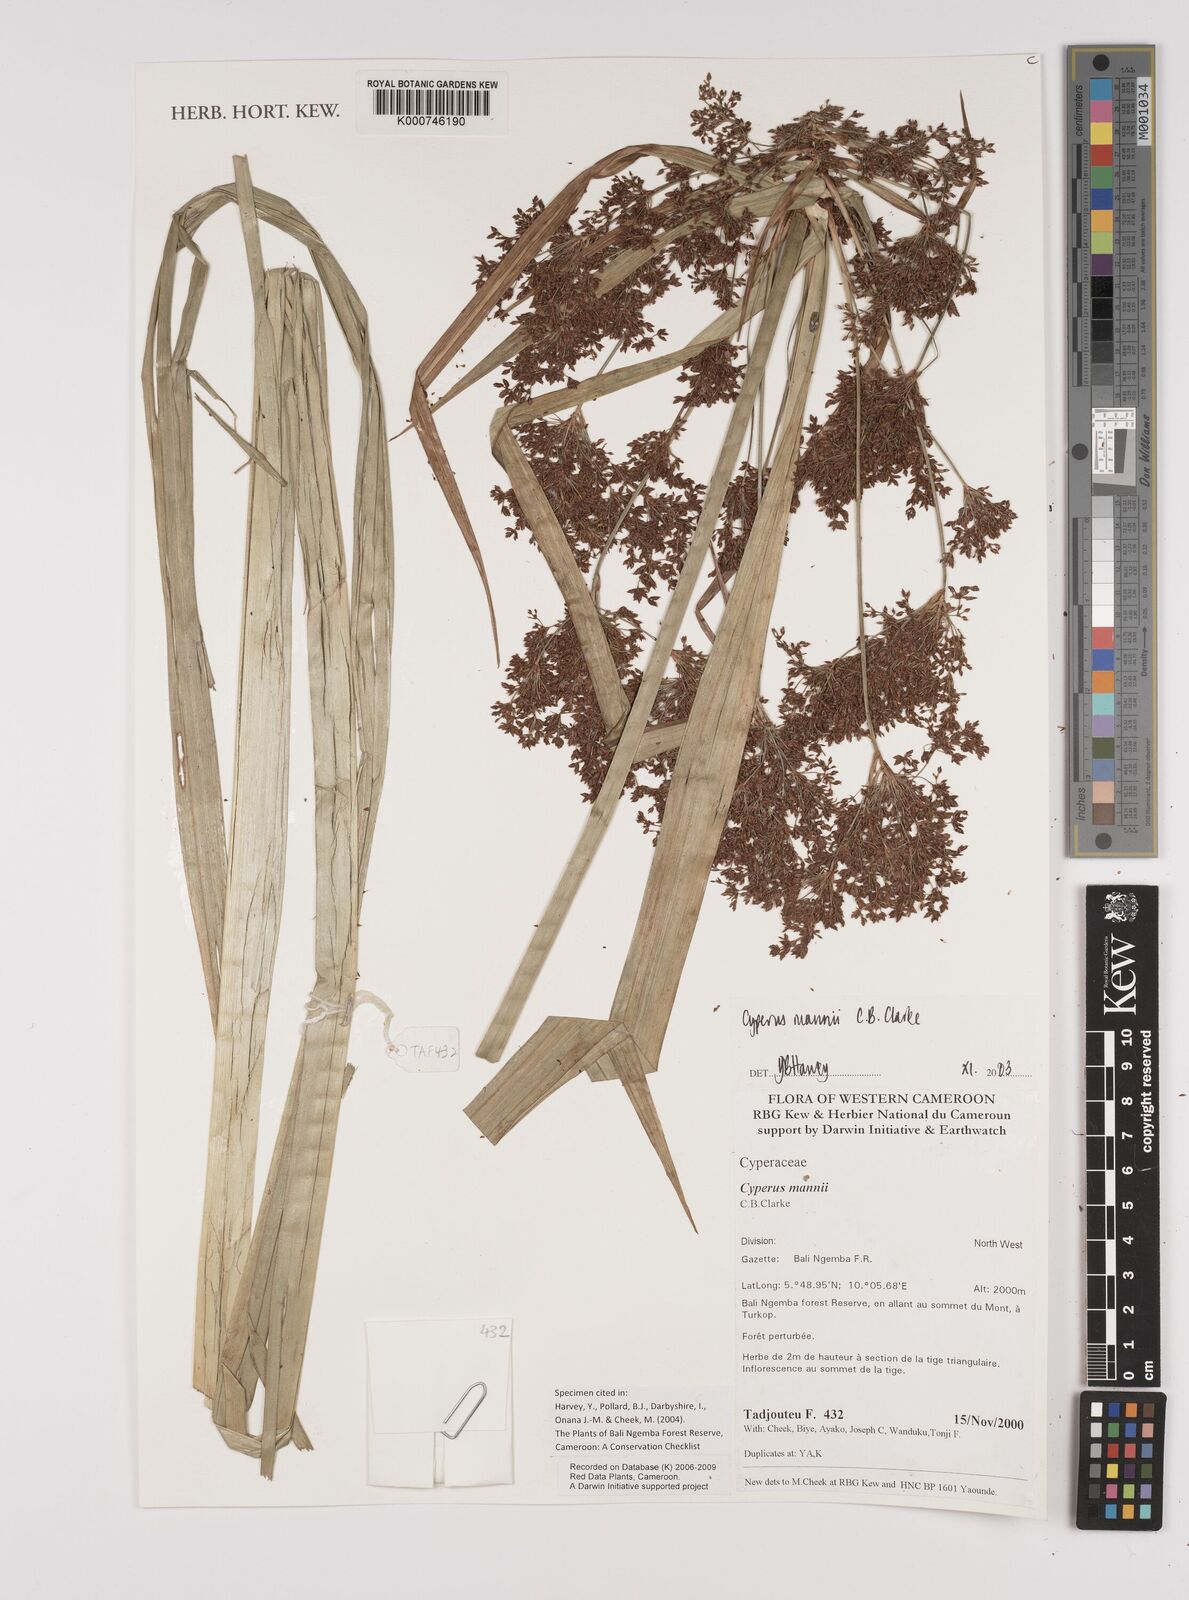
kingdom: Plantae
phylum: Tracheophyta
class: Liliopsida
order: Poales
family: Cyperaceae
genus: Cyperus
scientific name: Cyperus baronii
